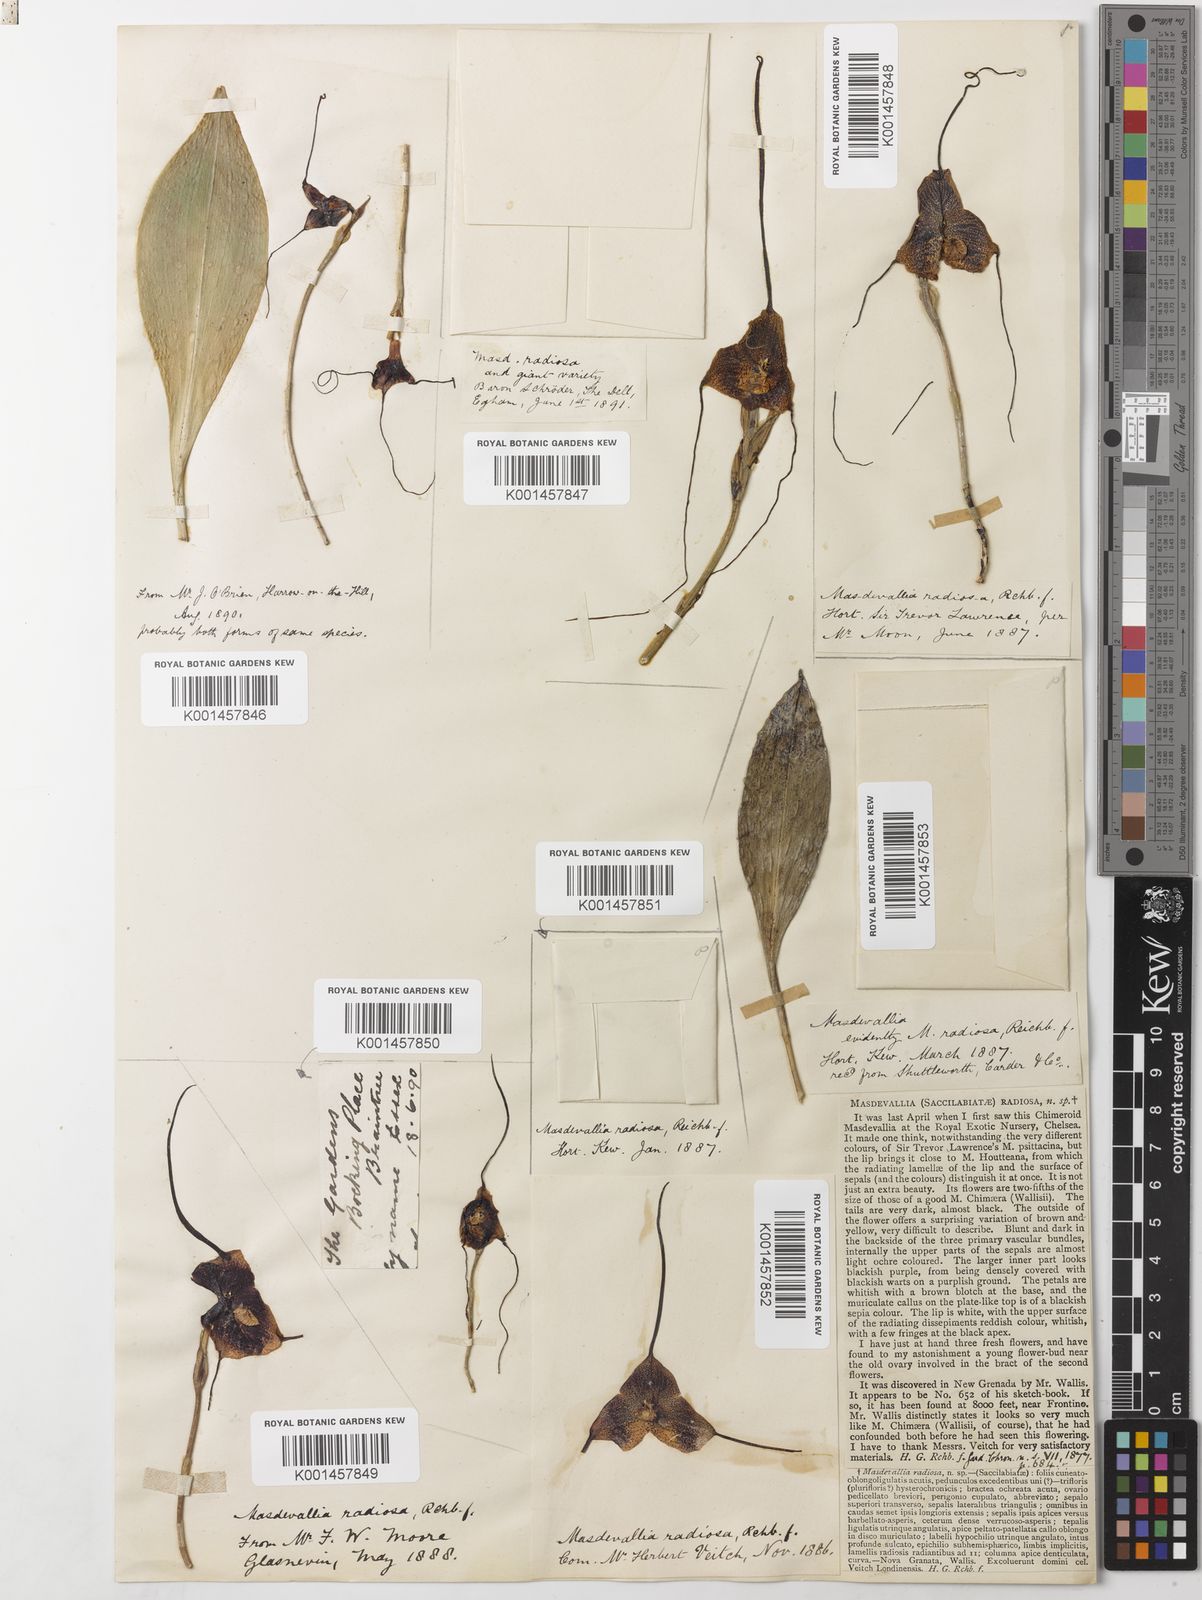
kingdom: Plantae
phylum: Tracheophyta
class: Liliopsida
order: Asparagales
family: Orchidaceae
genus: Dracula
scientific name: Dracula radiosa
